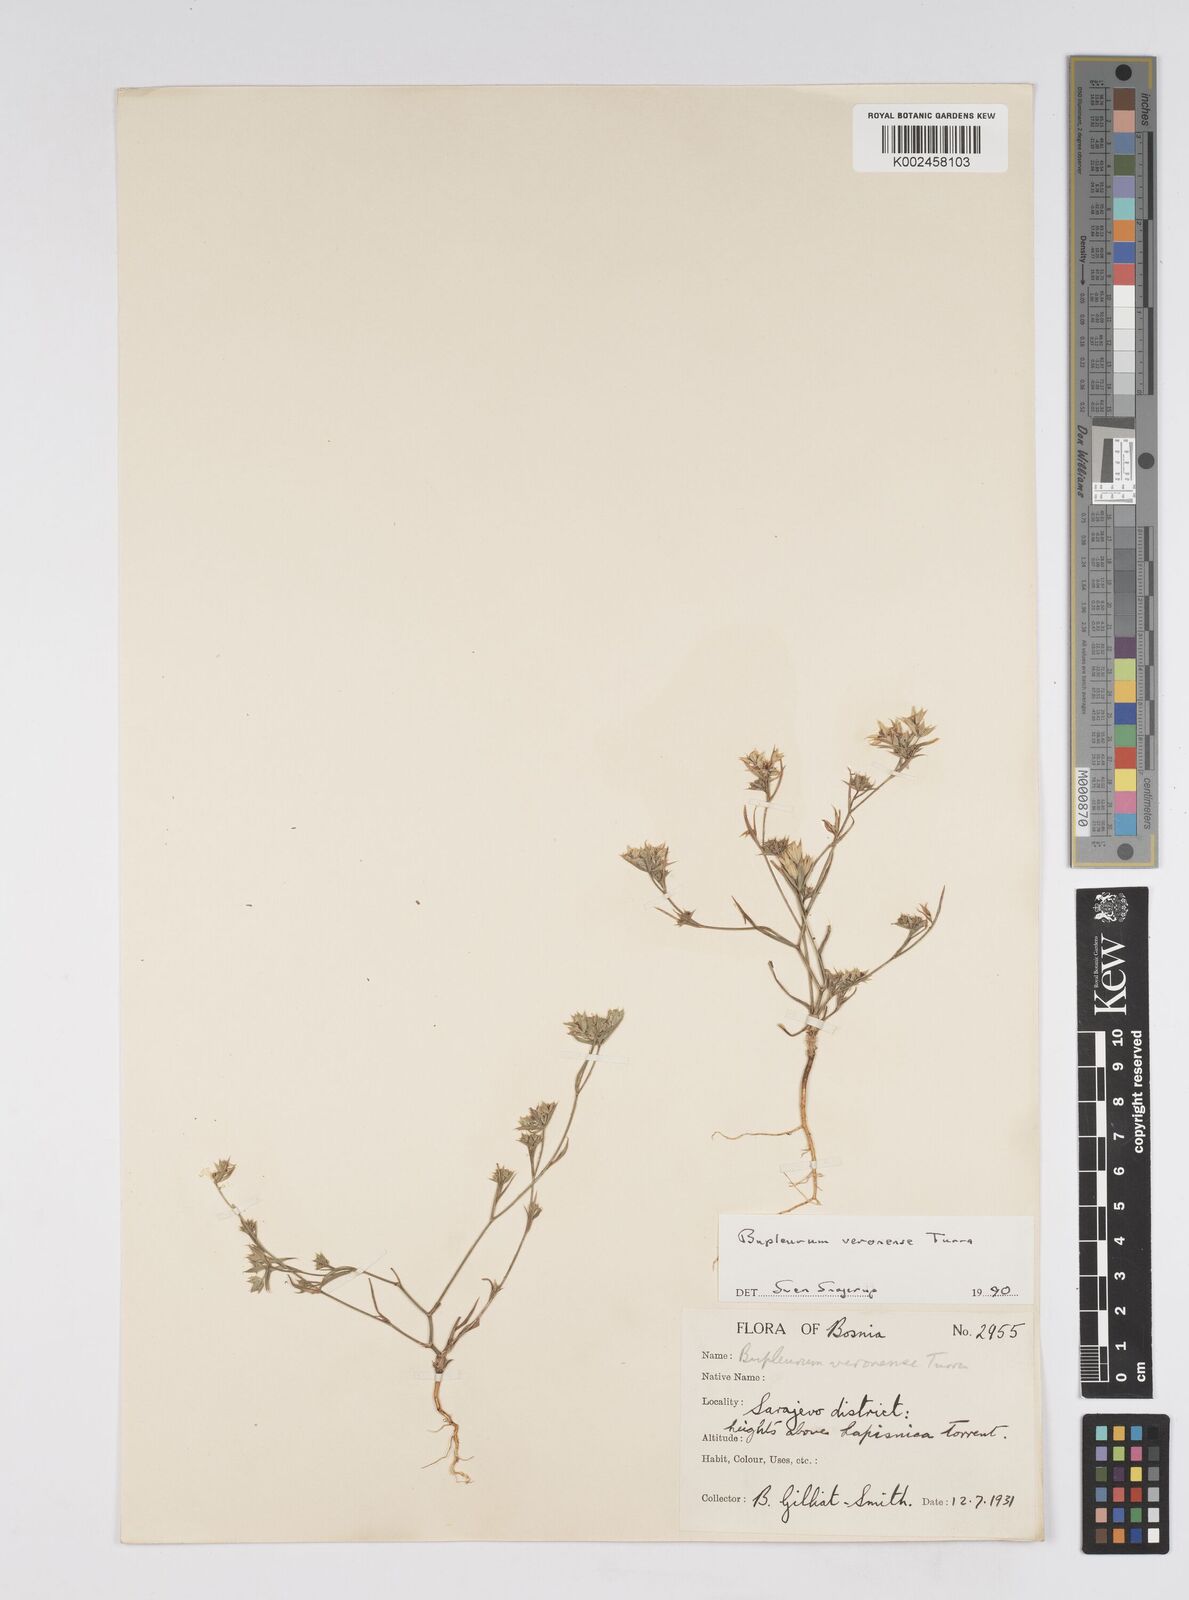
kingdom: Plantae
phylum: Tracheophyta
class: Magnoliopsida
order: Apiales
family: Apiaceae
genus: Bupleurum
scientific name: Bupleurum baldense
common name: Small hare's-ear
